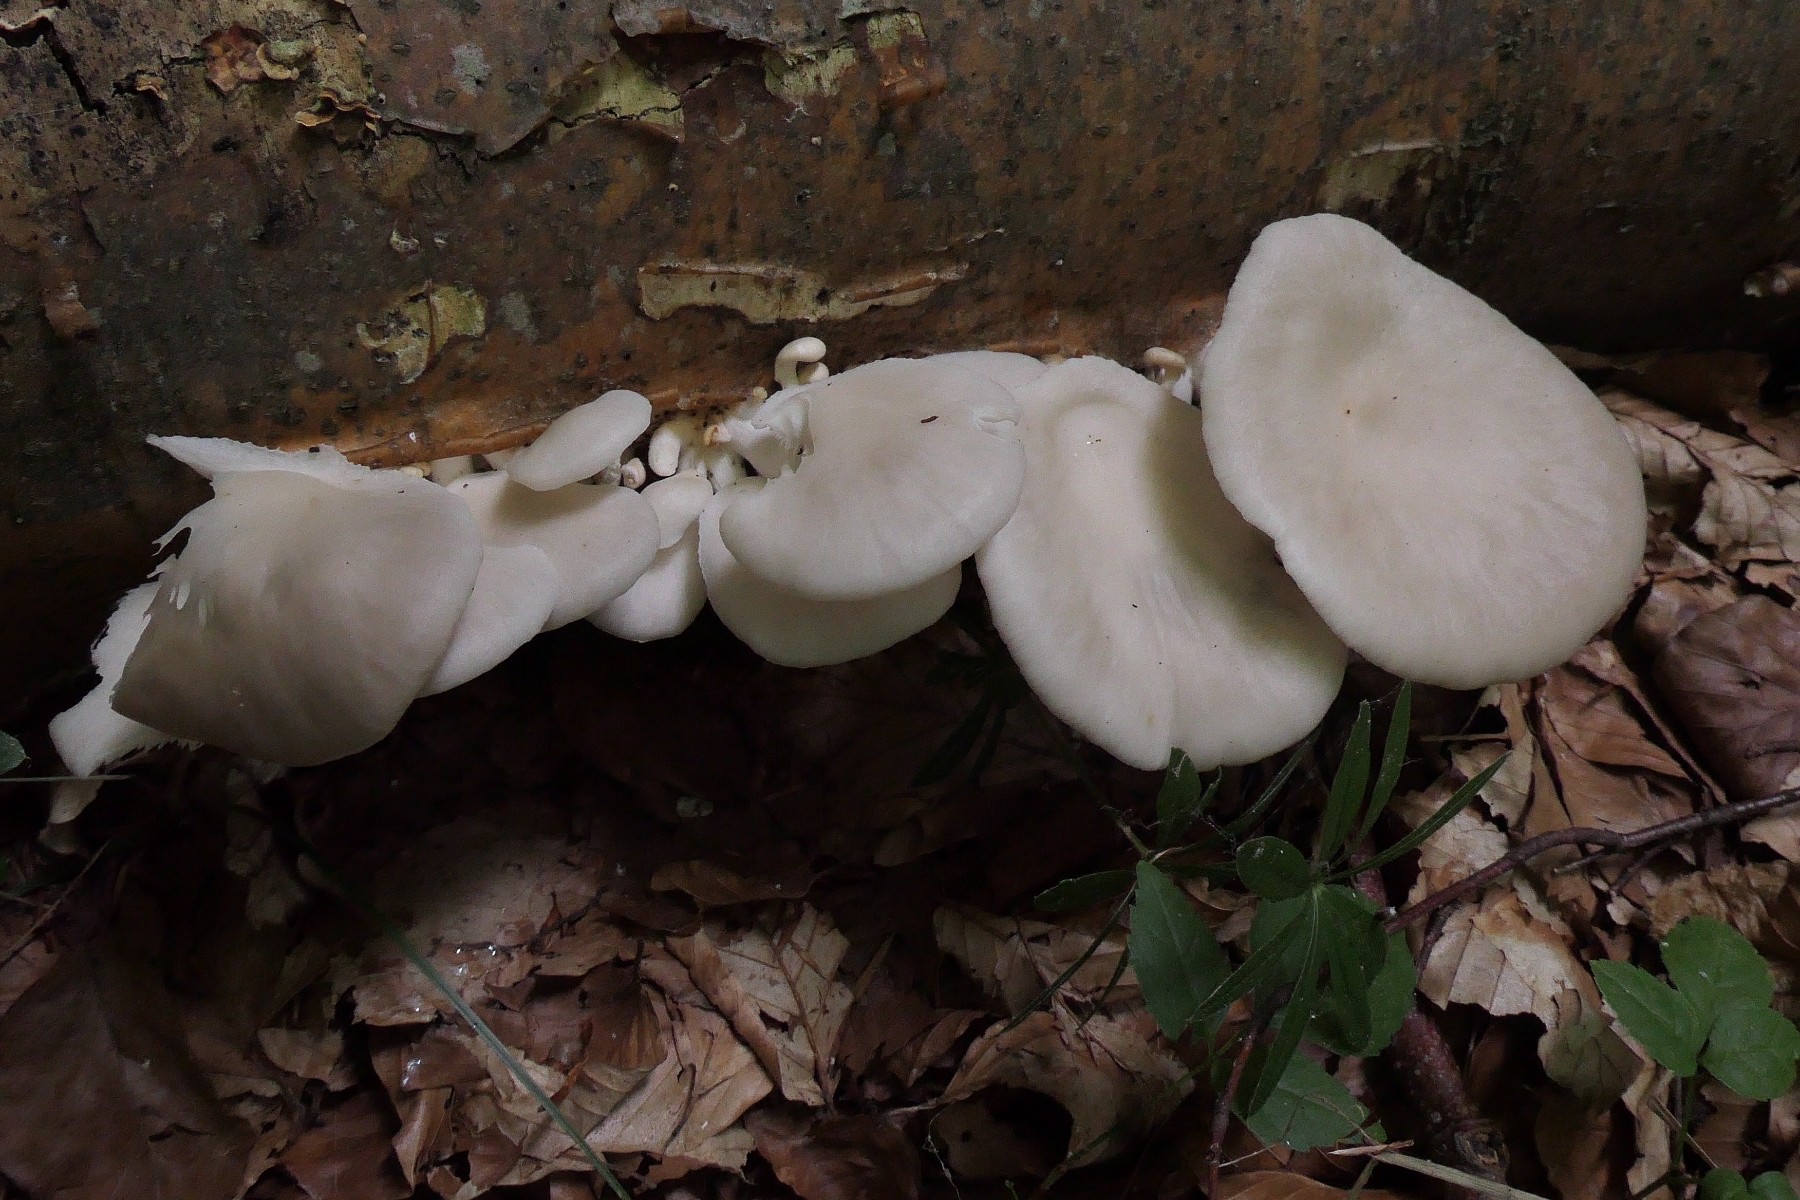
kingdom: Fungi
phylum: Basidiomycota
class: Agaricomycetes
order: Agaricales
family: Pleurotaceae
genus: Pleurotus
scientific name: Pleurotus pulmonarius
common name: sommer-østershat
